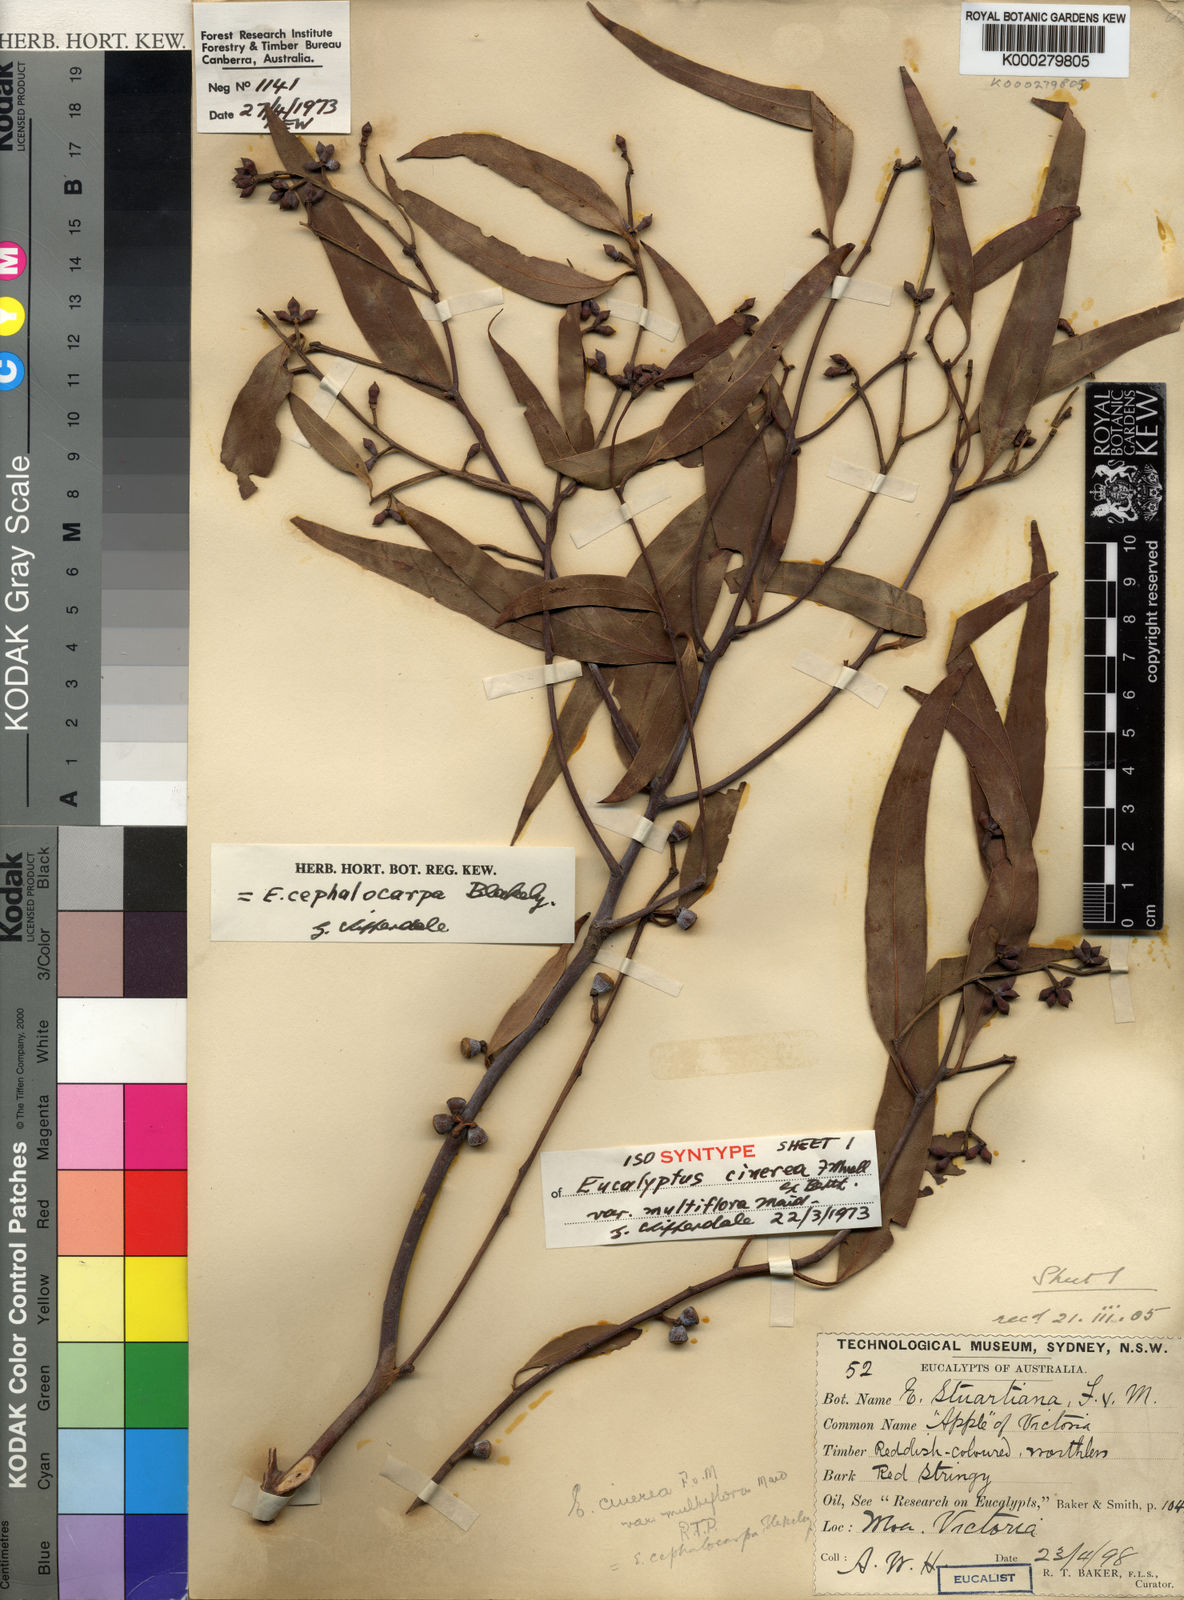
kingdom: Plantae
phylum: Tracheophyta
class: Magnoliopsida
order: Myrtales
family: Myrtaceae
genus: Eucalyptus
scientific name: Eucalyptus cephalocarpa
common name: Mealy stringybark
